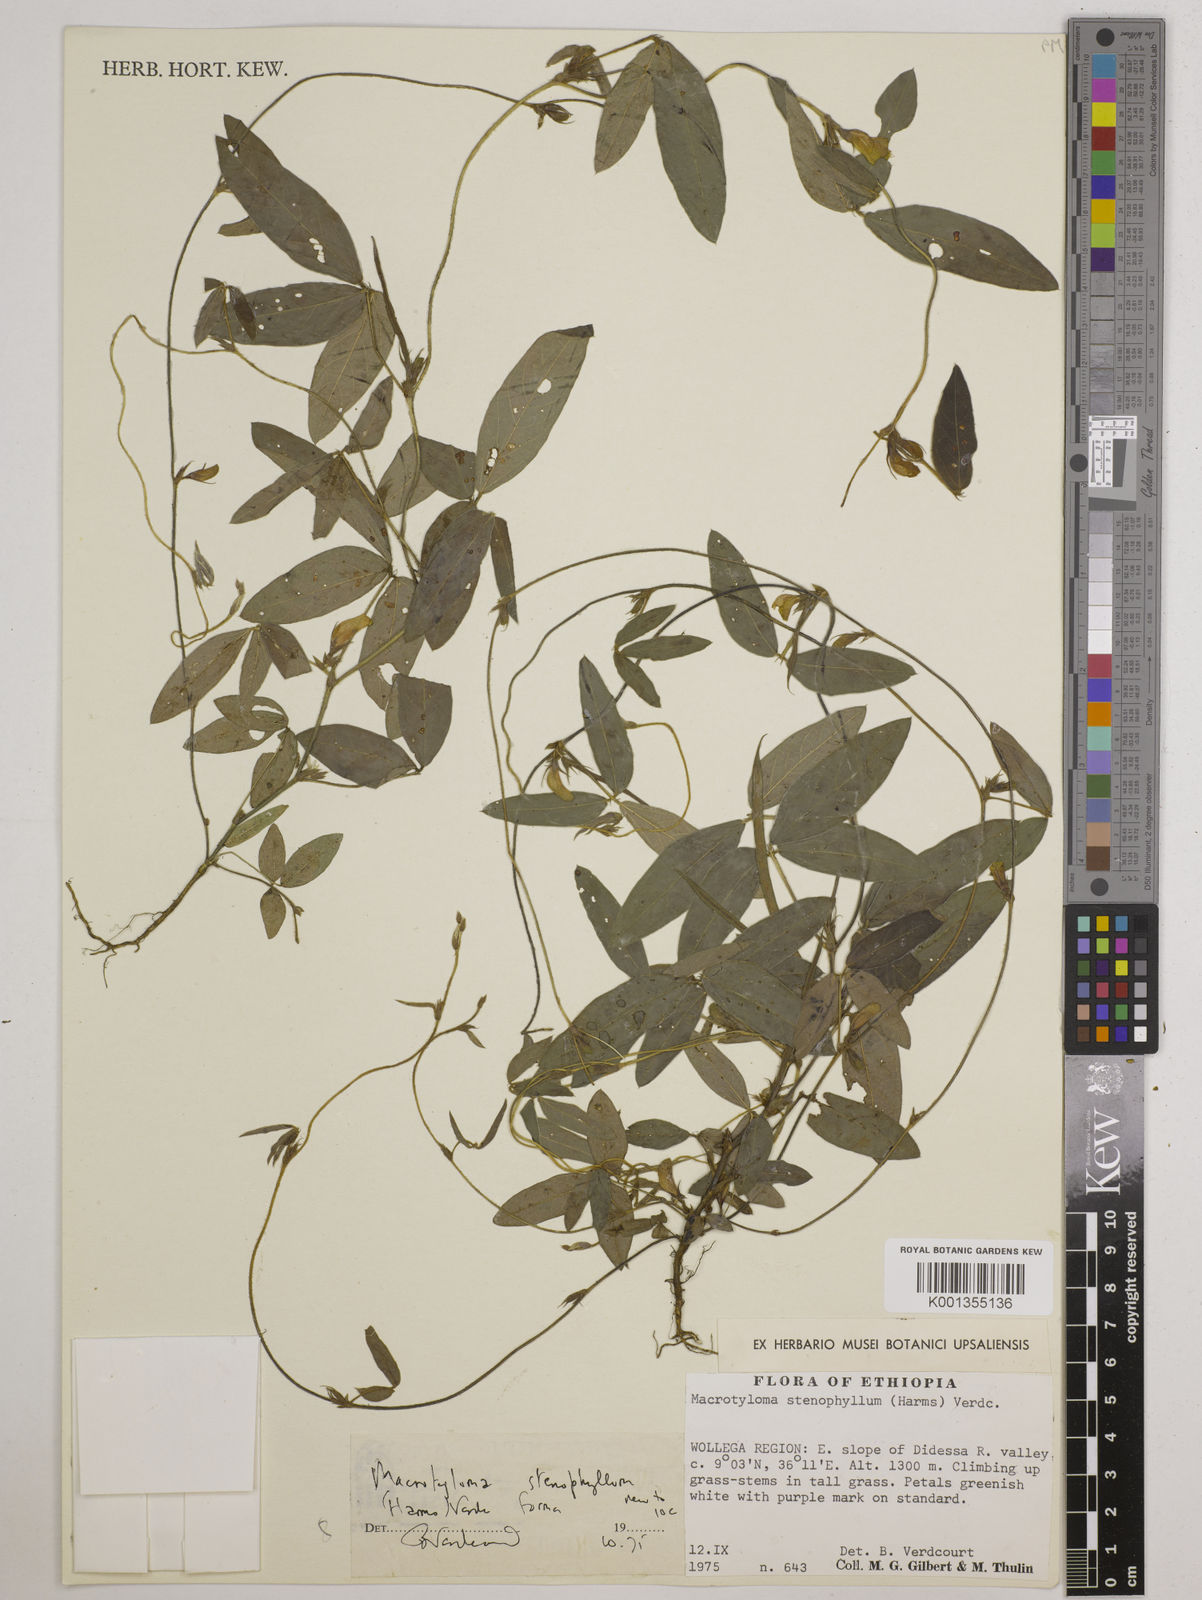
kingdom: Plantae
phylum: Tracheophyta
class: Magnoliopsida
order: Fabales
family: Fabaceae
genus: Macrotyloma
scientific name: Macrotyloma stenophyllum
